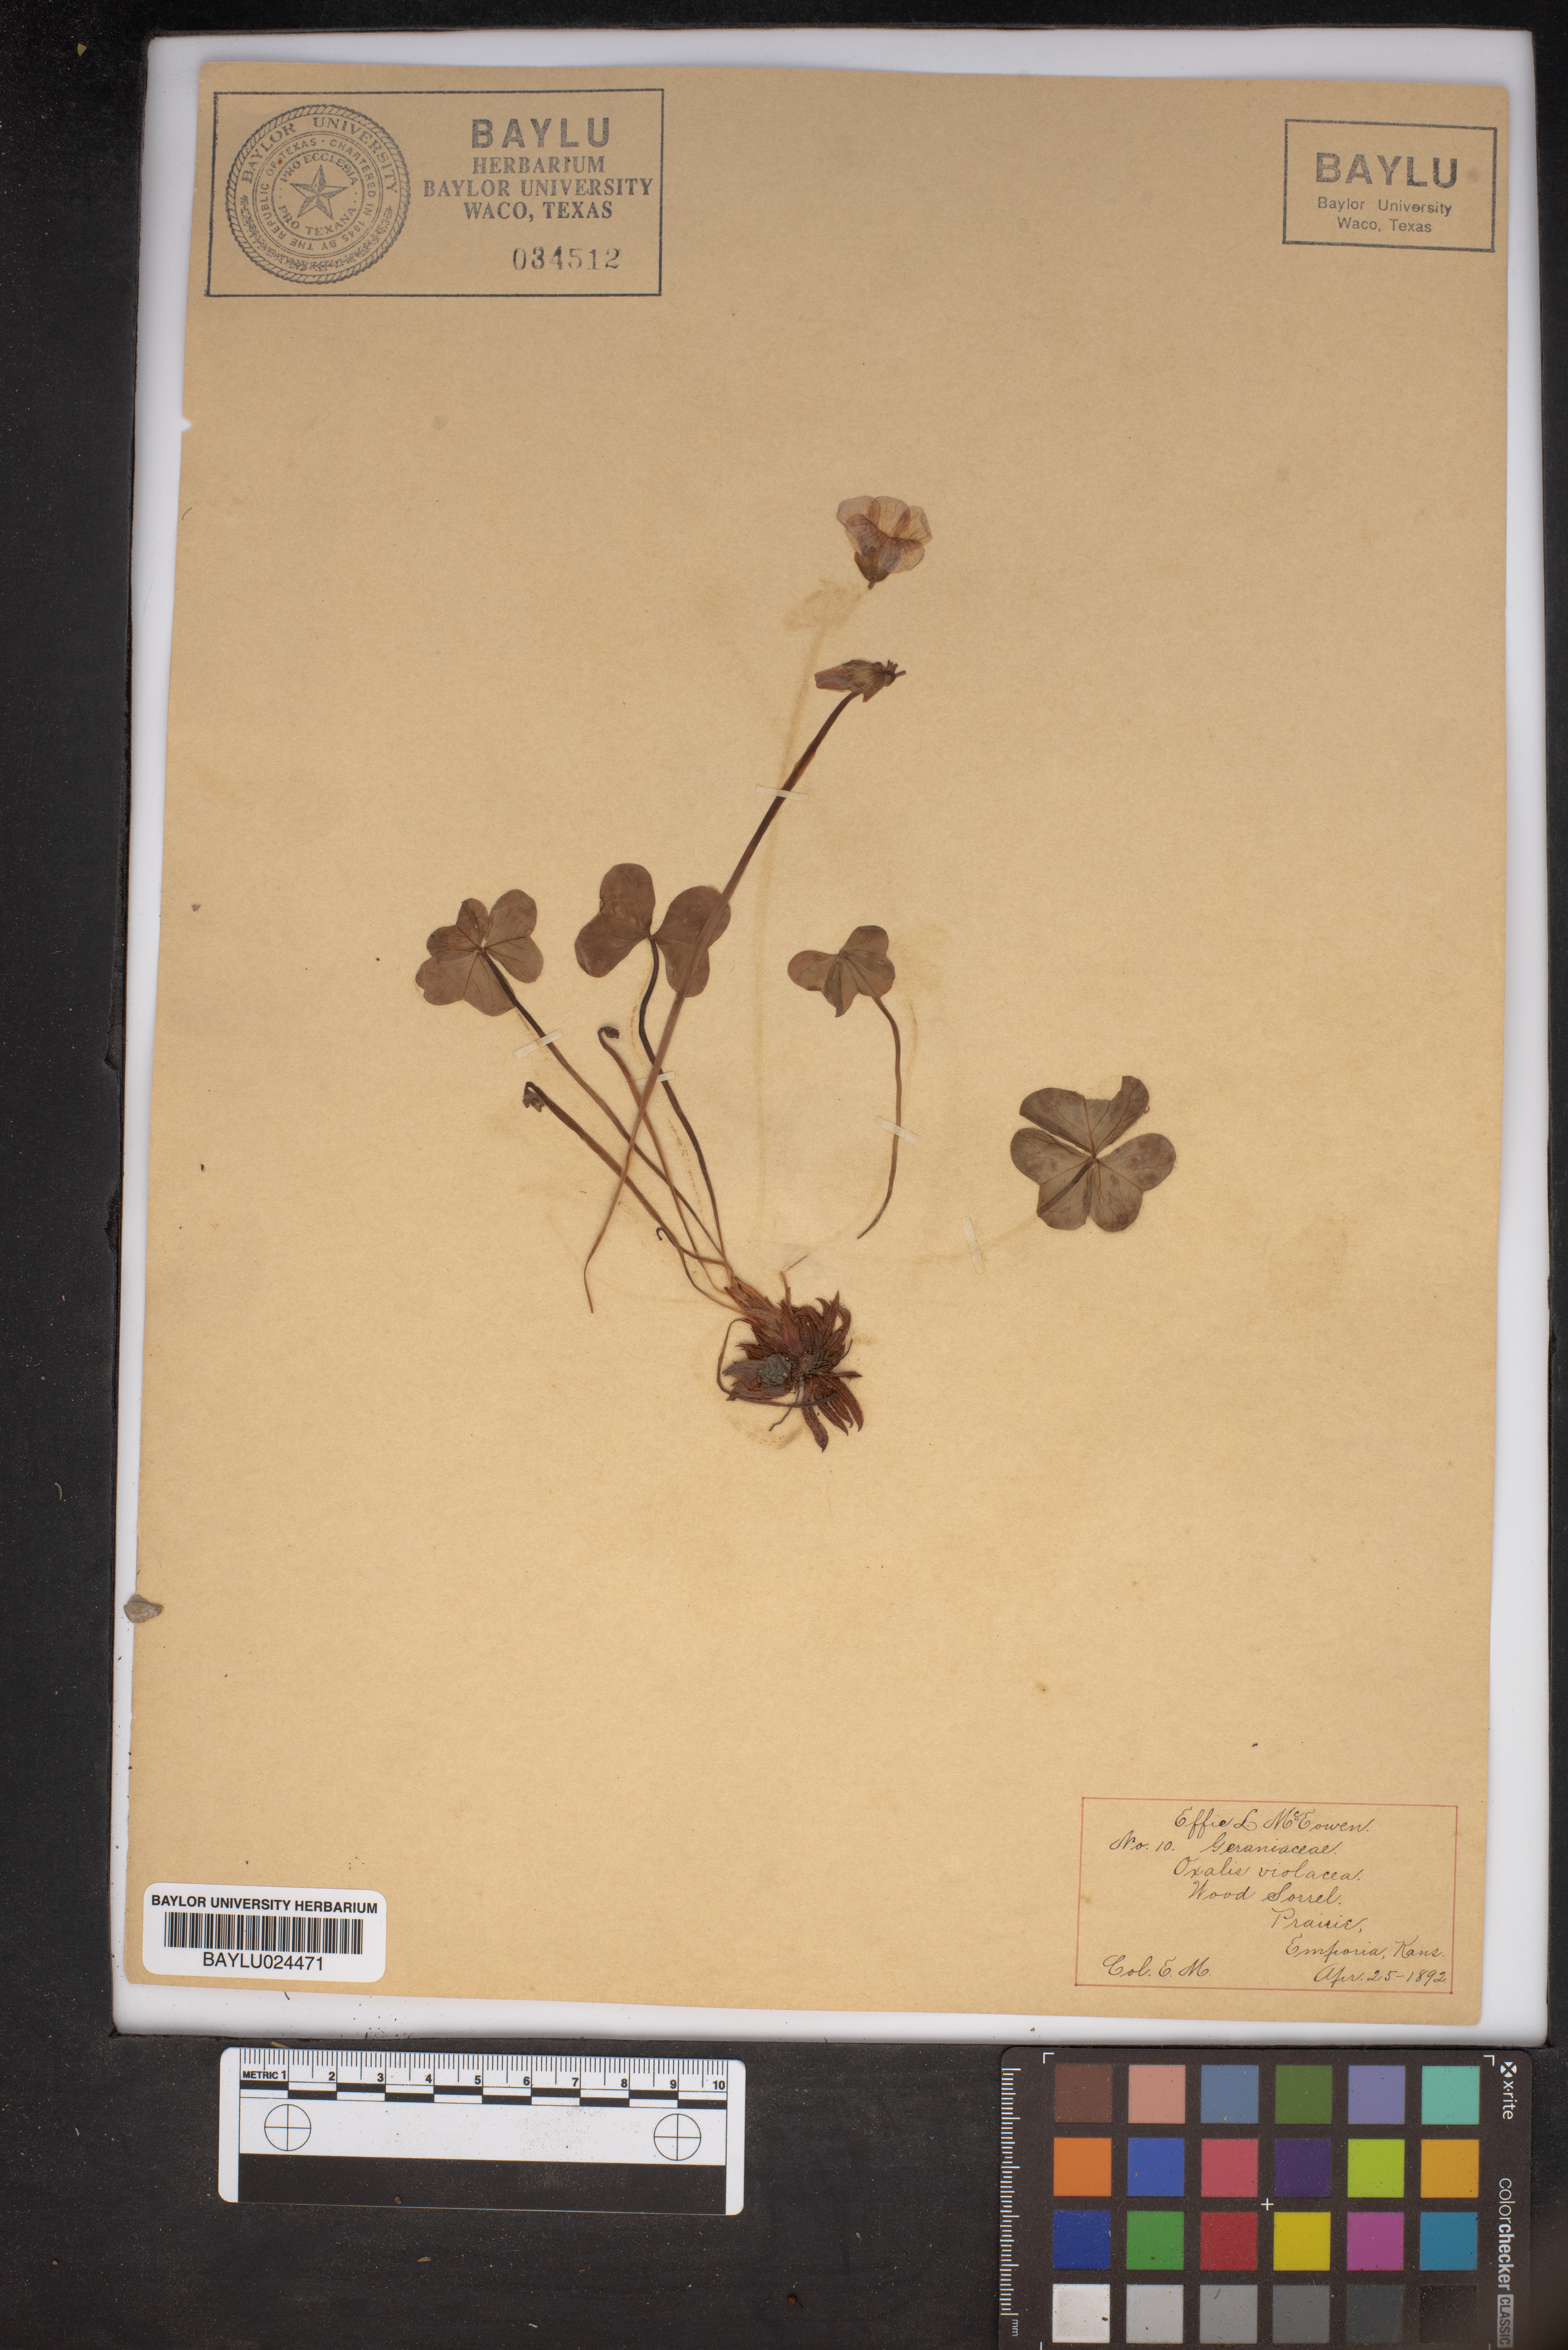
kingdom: Plantae
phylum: Tracheophyta
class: Magnoliopsida
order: Oxalidales
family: Oxalidaceae
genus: Oxalis
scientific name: Oxalis violacea
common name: Violet wood-sorrel
